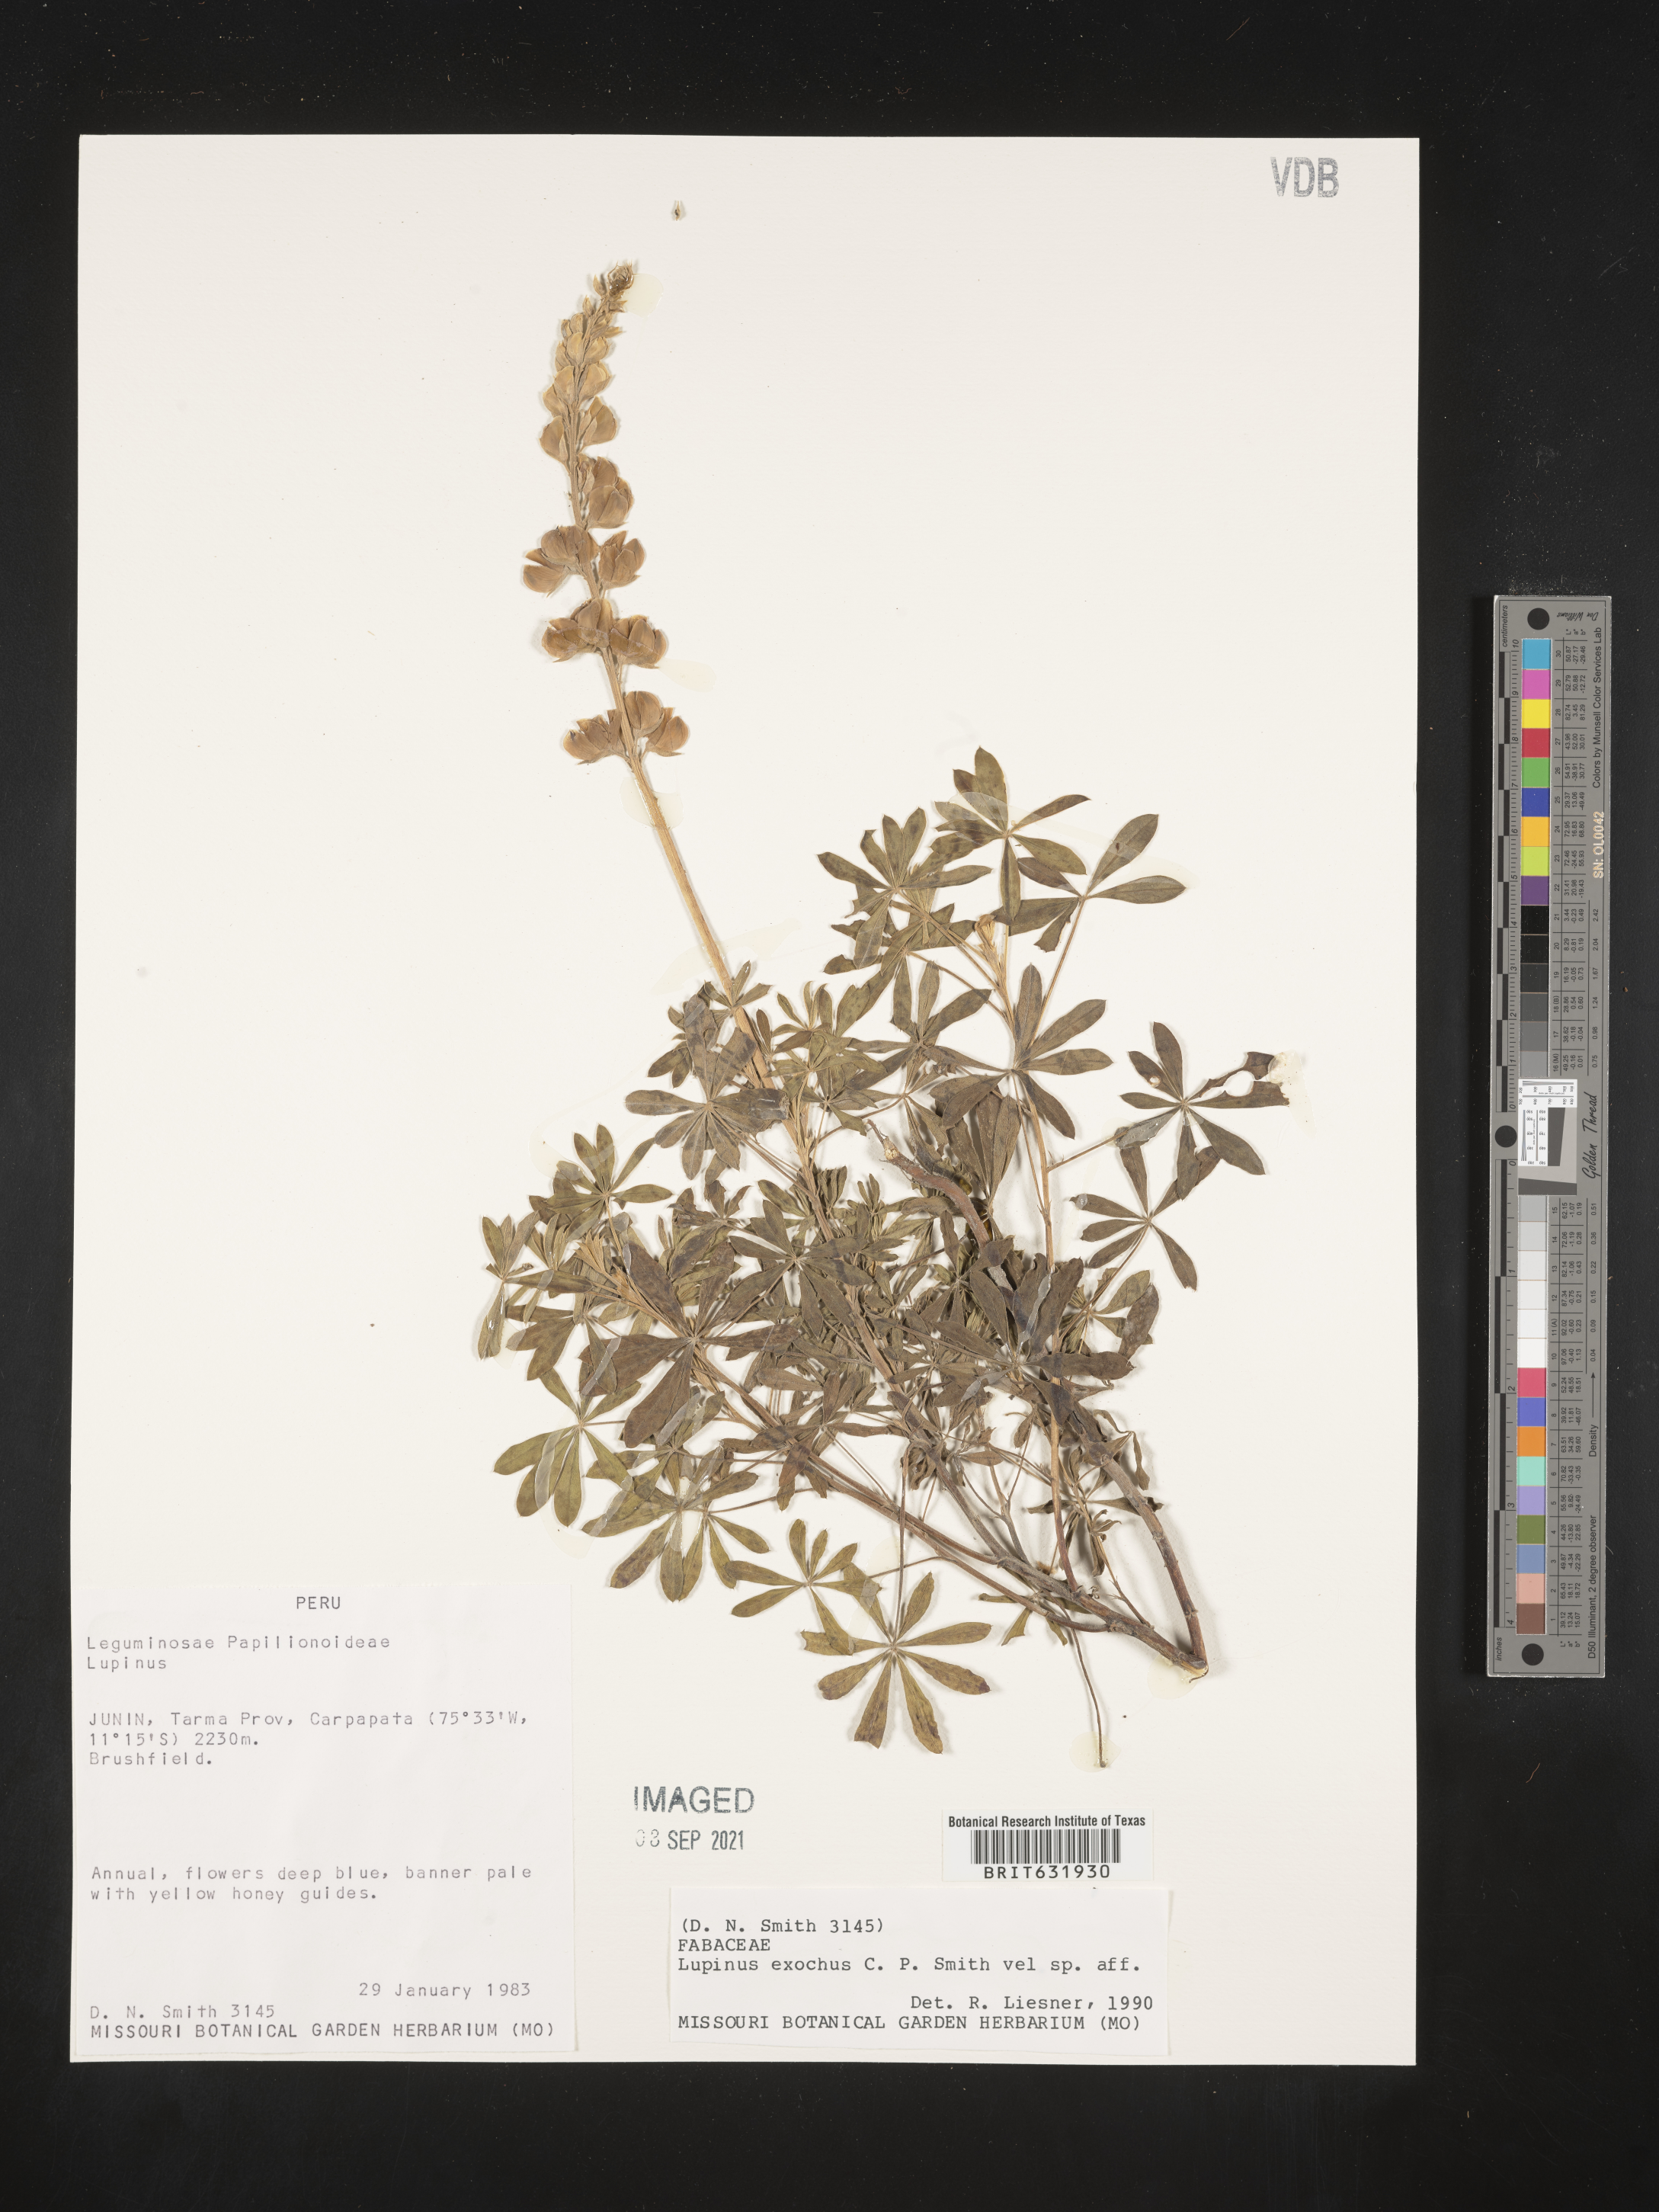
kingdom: Plantae
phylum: Tracheophyta
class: Magnoliopsida
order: Fabales
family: Fabaceae
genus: Lupinus
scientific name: Lupinus
